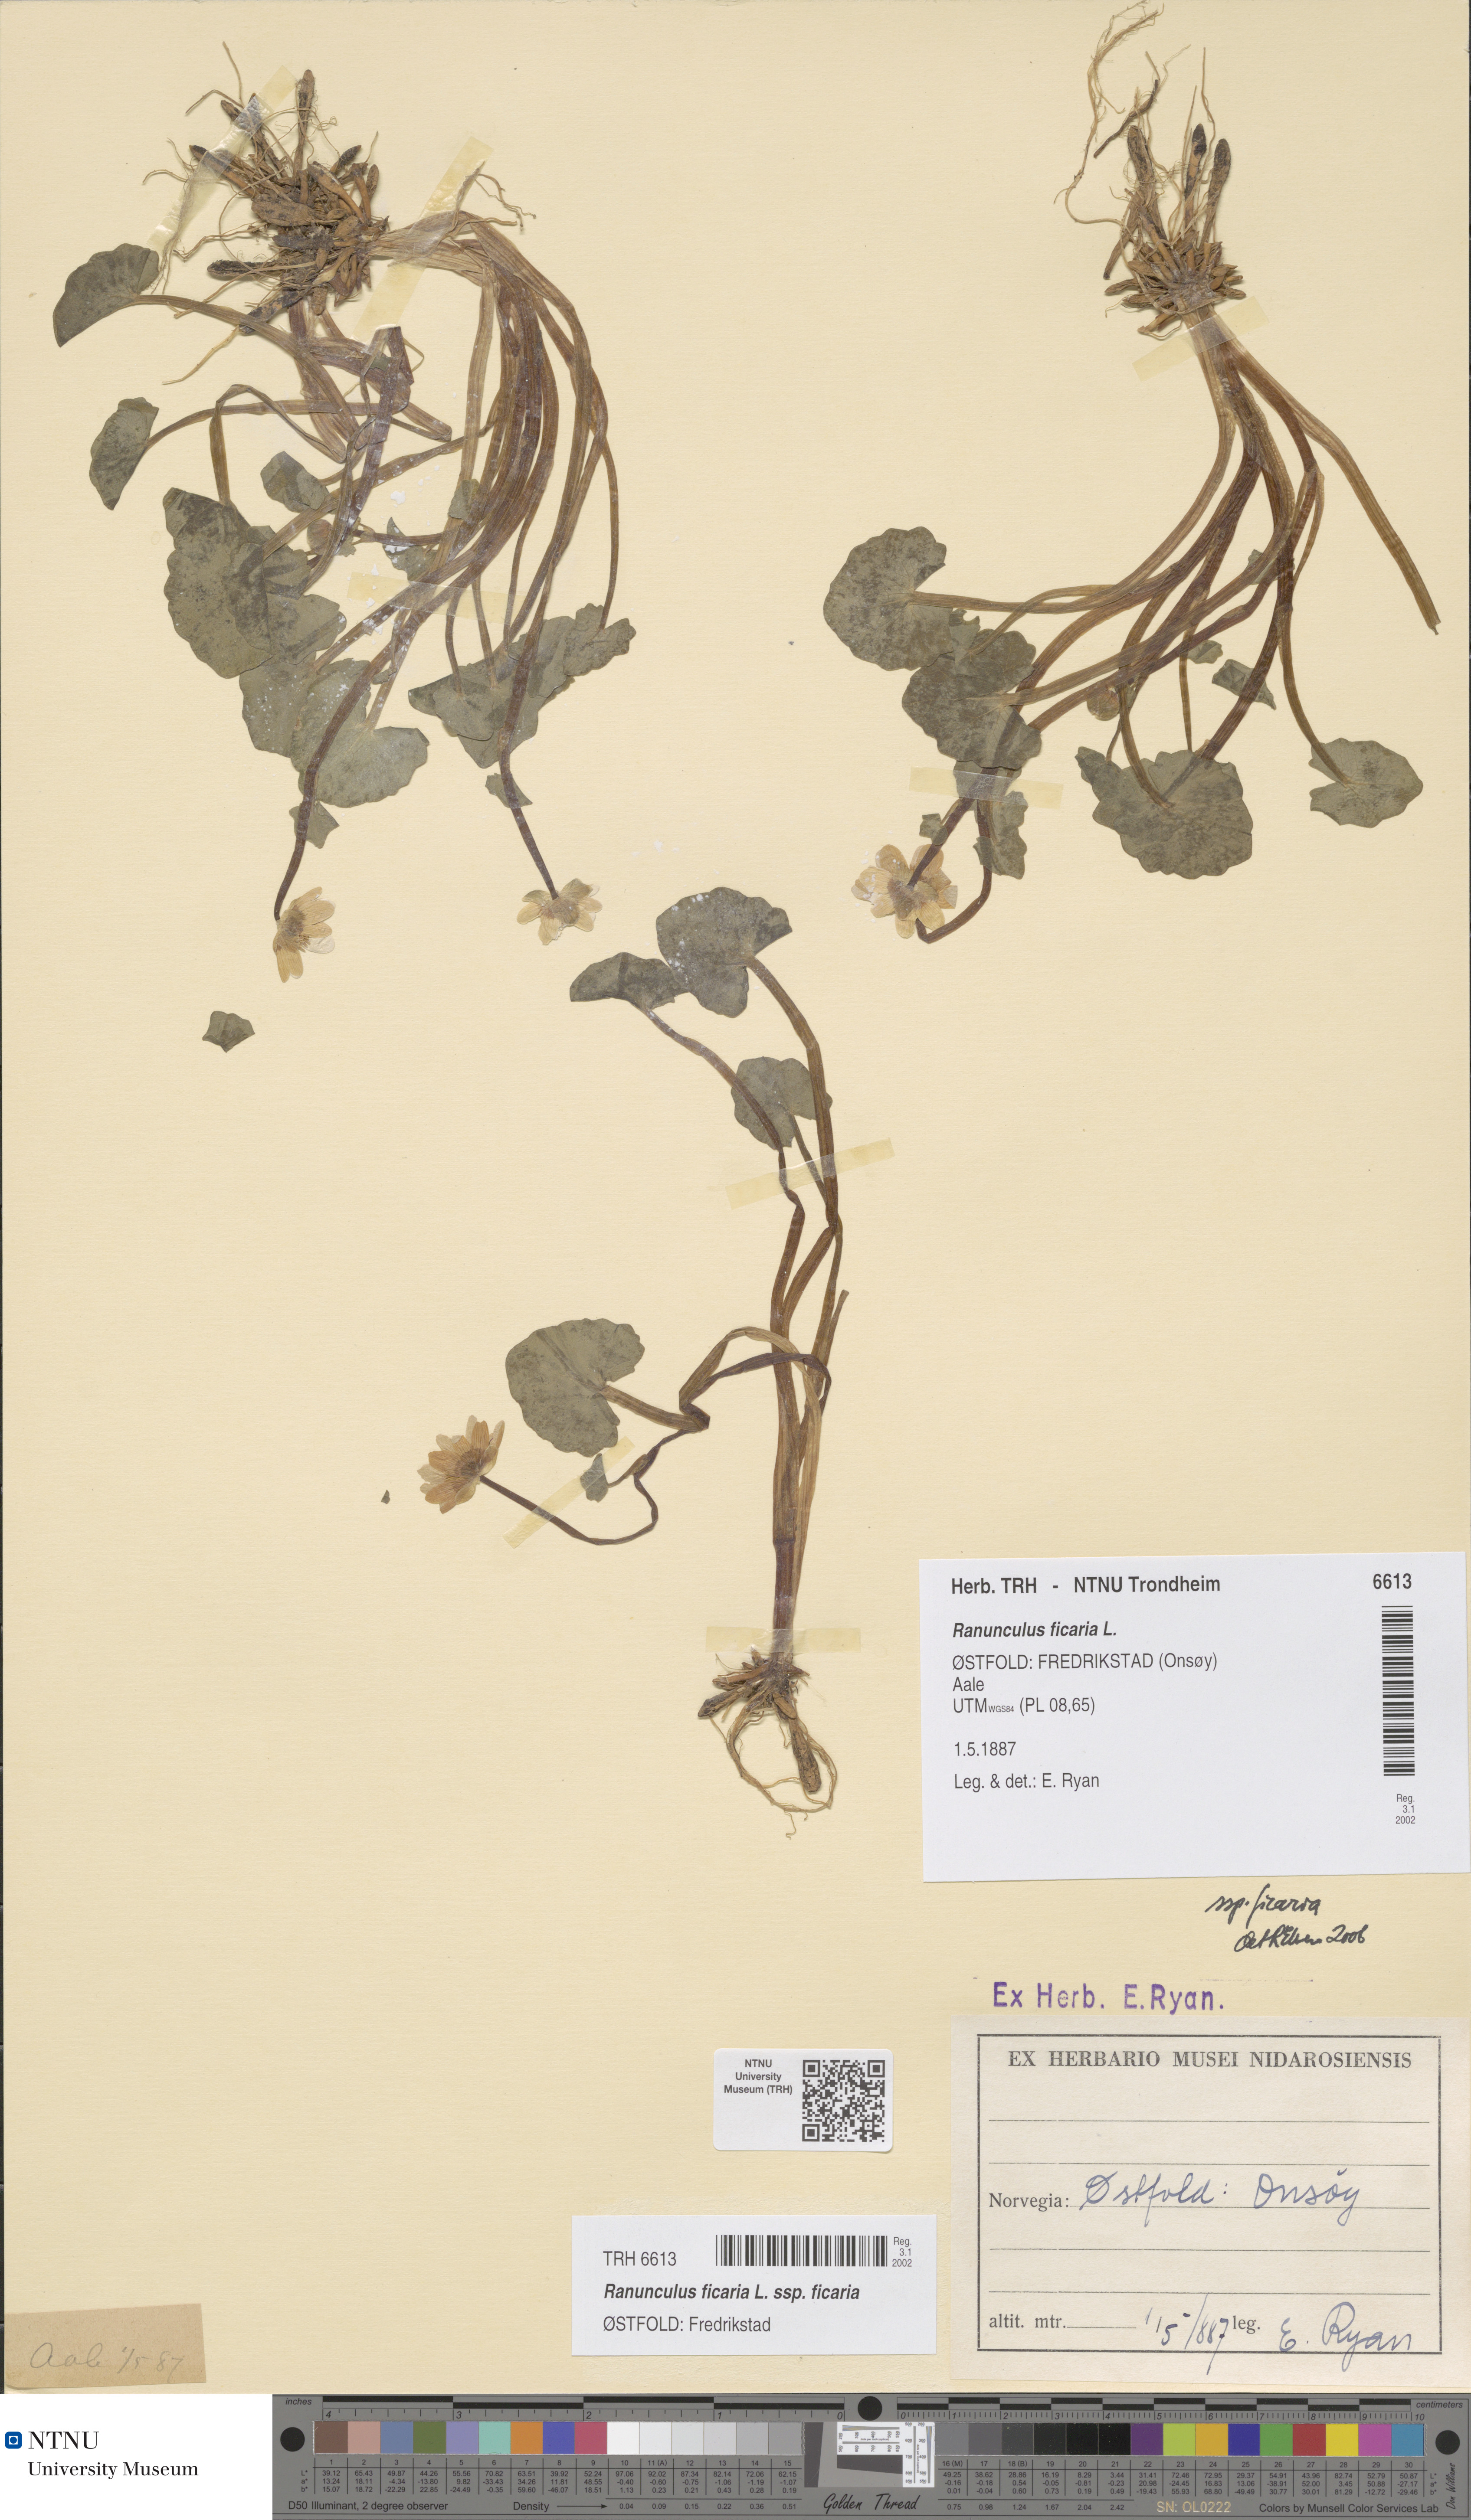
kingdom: Plantae
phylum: Tracheophyta
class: Magnoliopsida
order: Ranunculales
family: Ranunculaceae
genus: Ficaria
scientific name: Ficaria verna
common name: Lesser celandine
